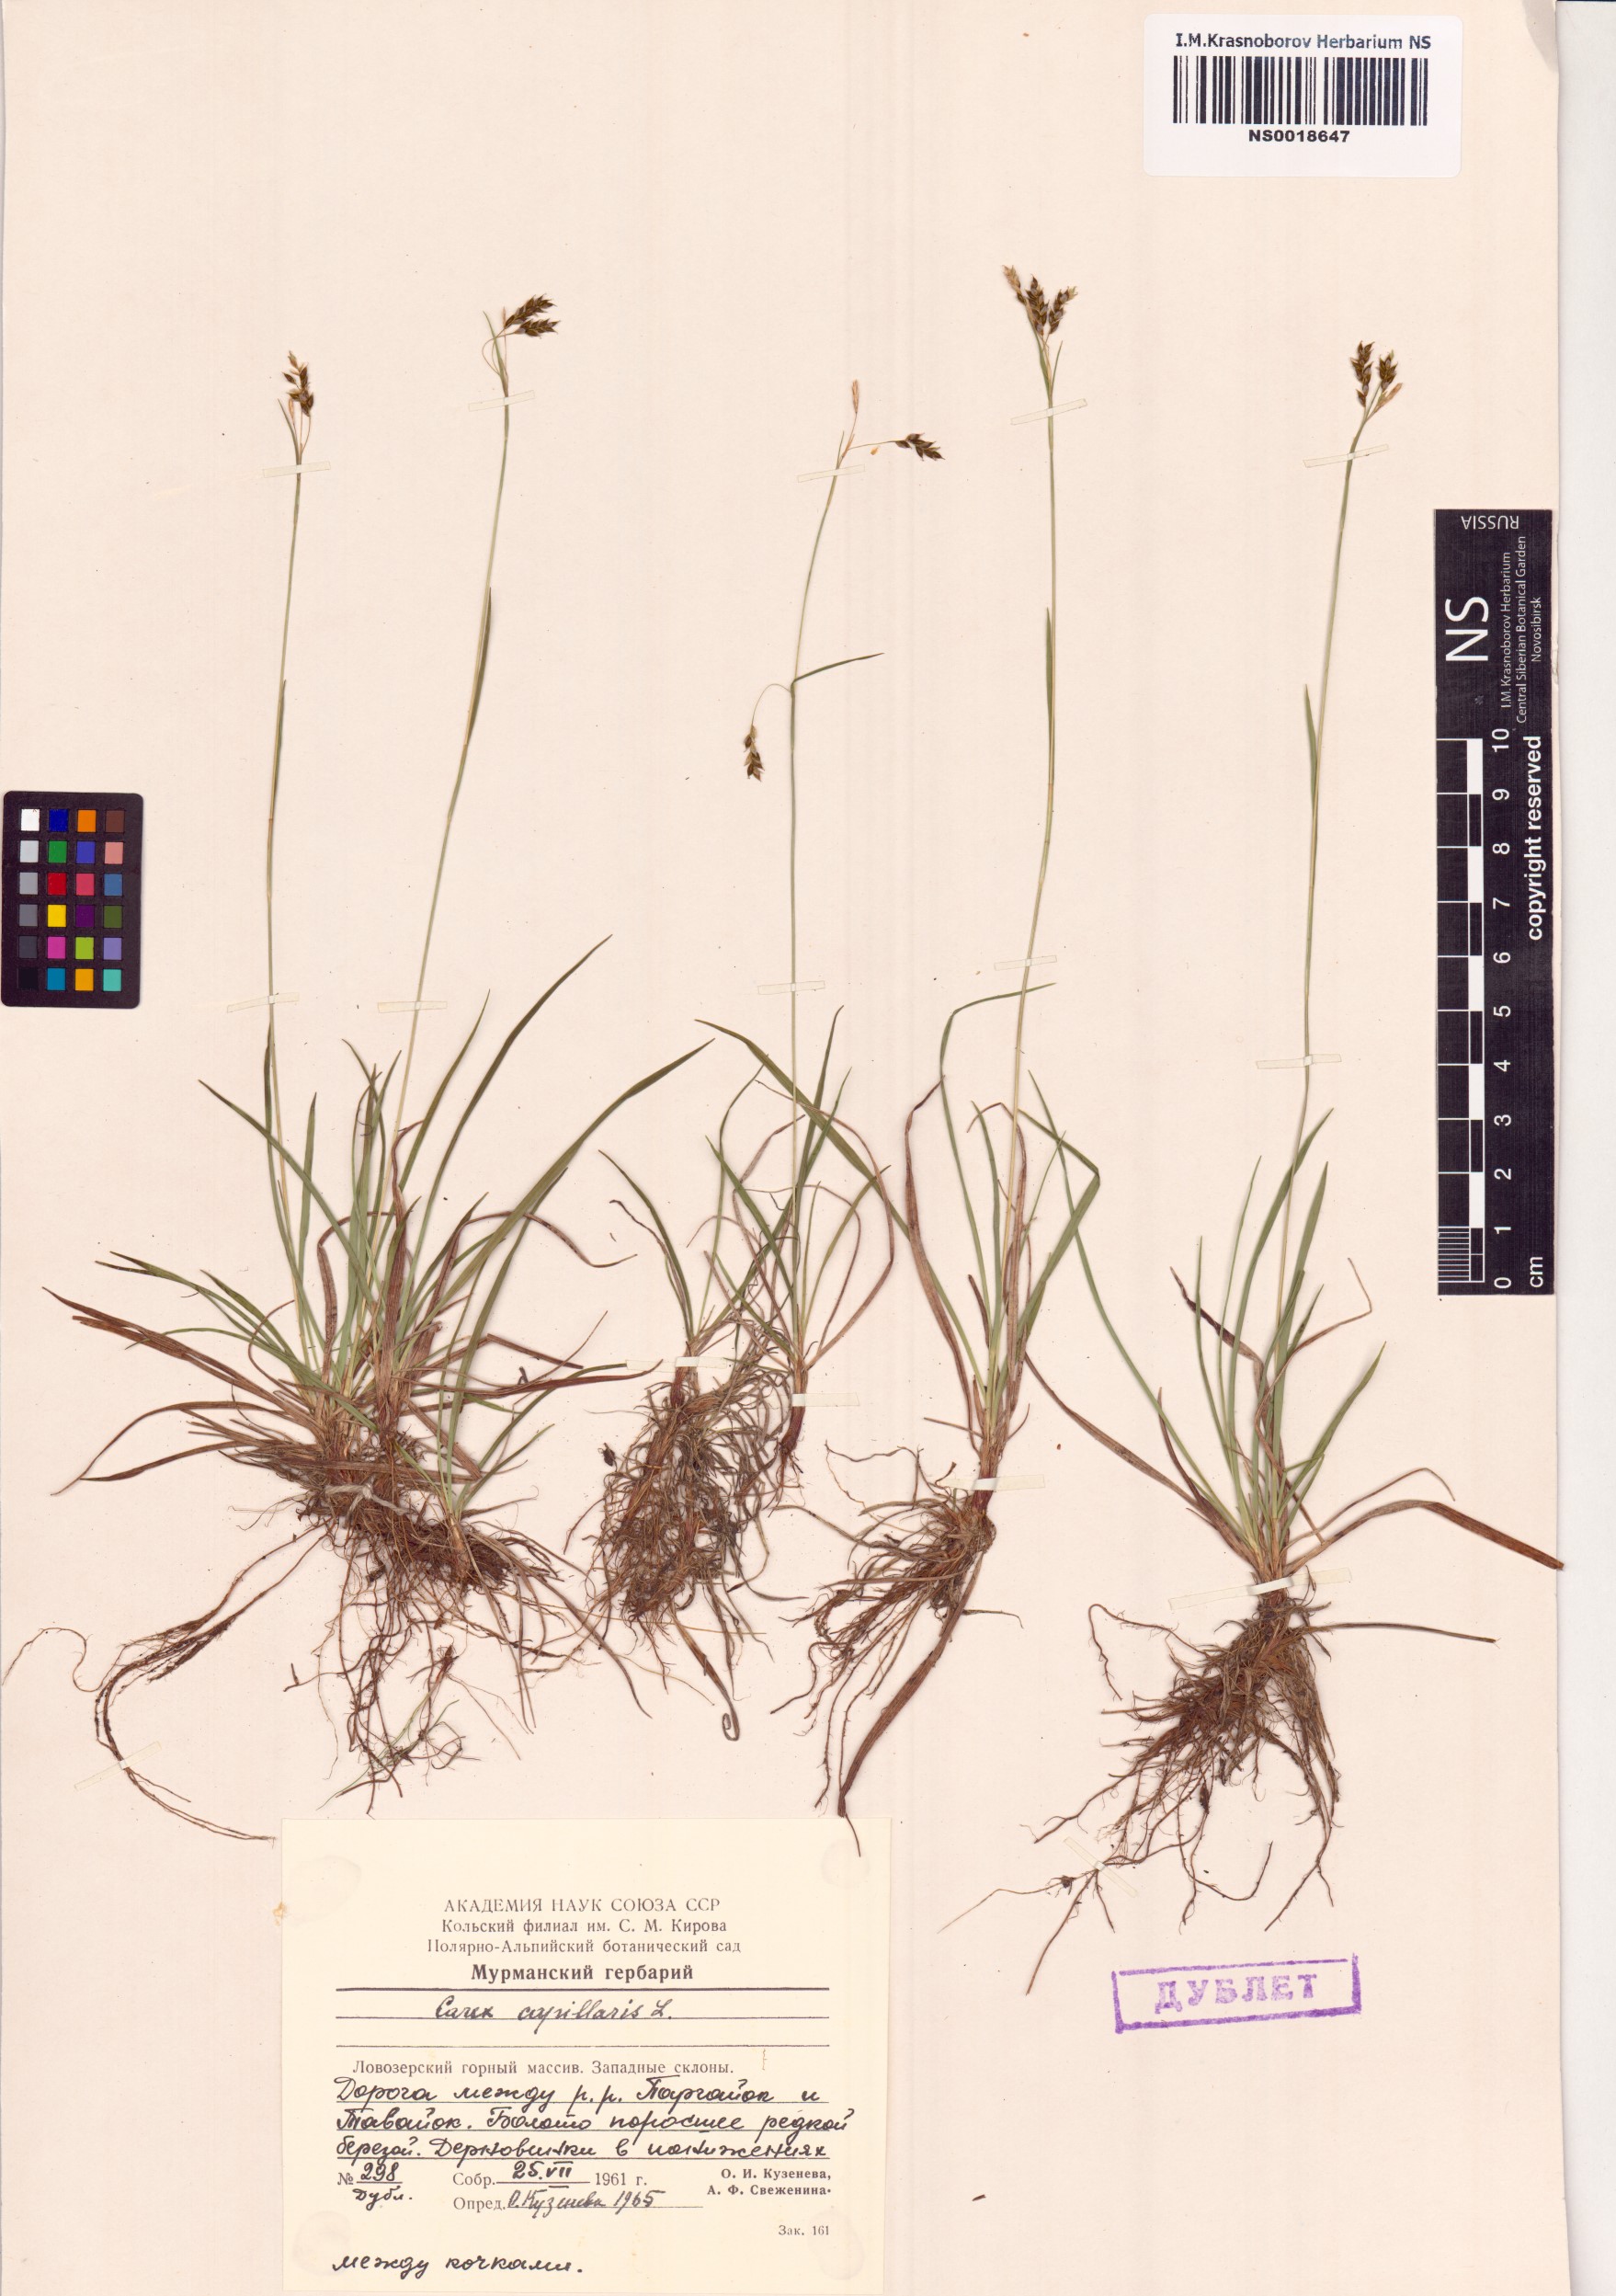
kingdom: Plantae
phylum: Tracheophyta
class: Liliopsida
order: Poales
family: Cyperaceae
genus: Carex
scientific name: Carex capillaris
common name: Hair sedge
